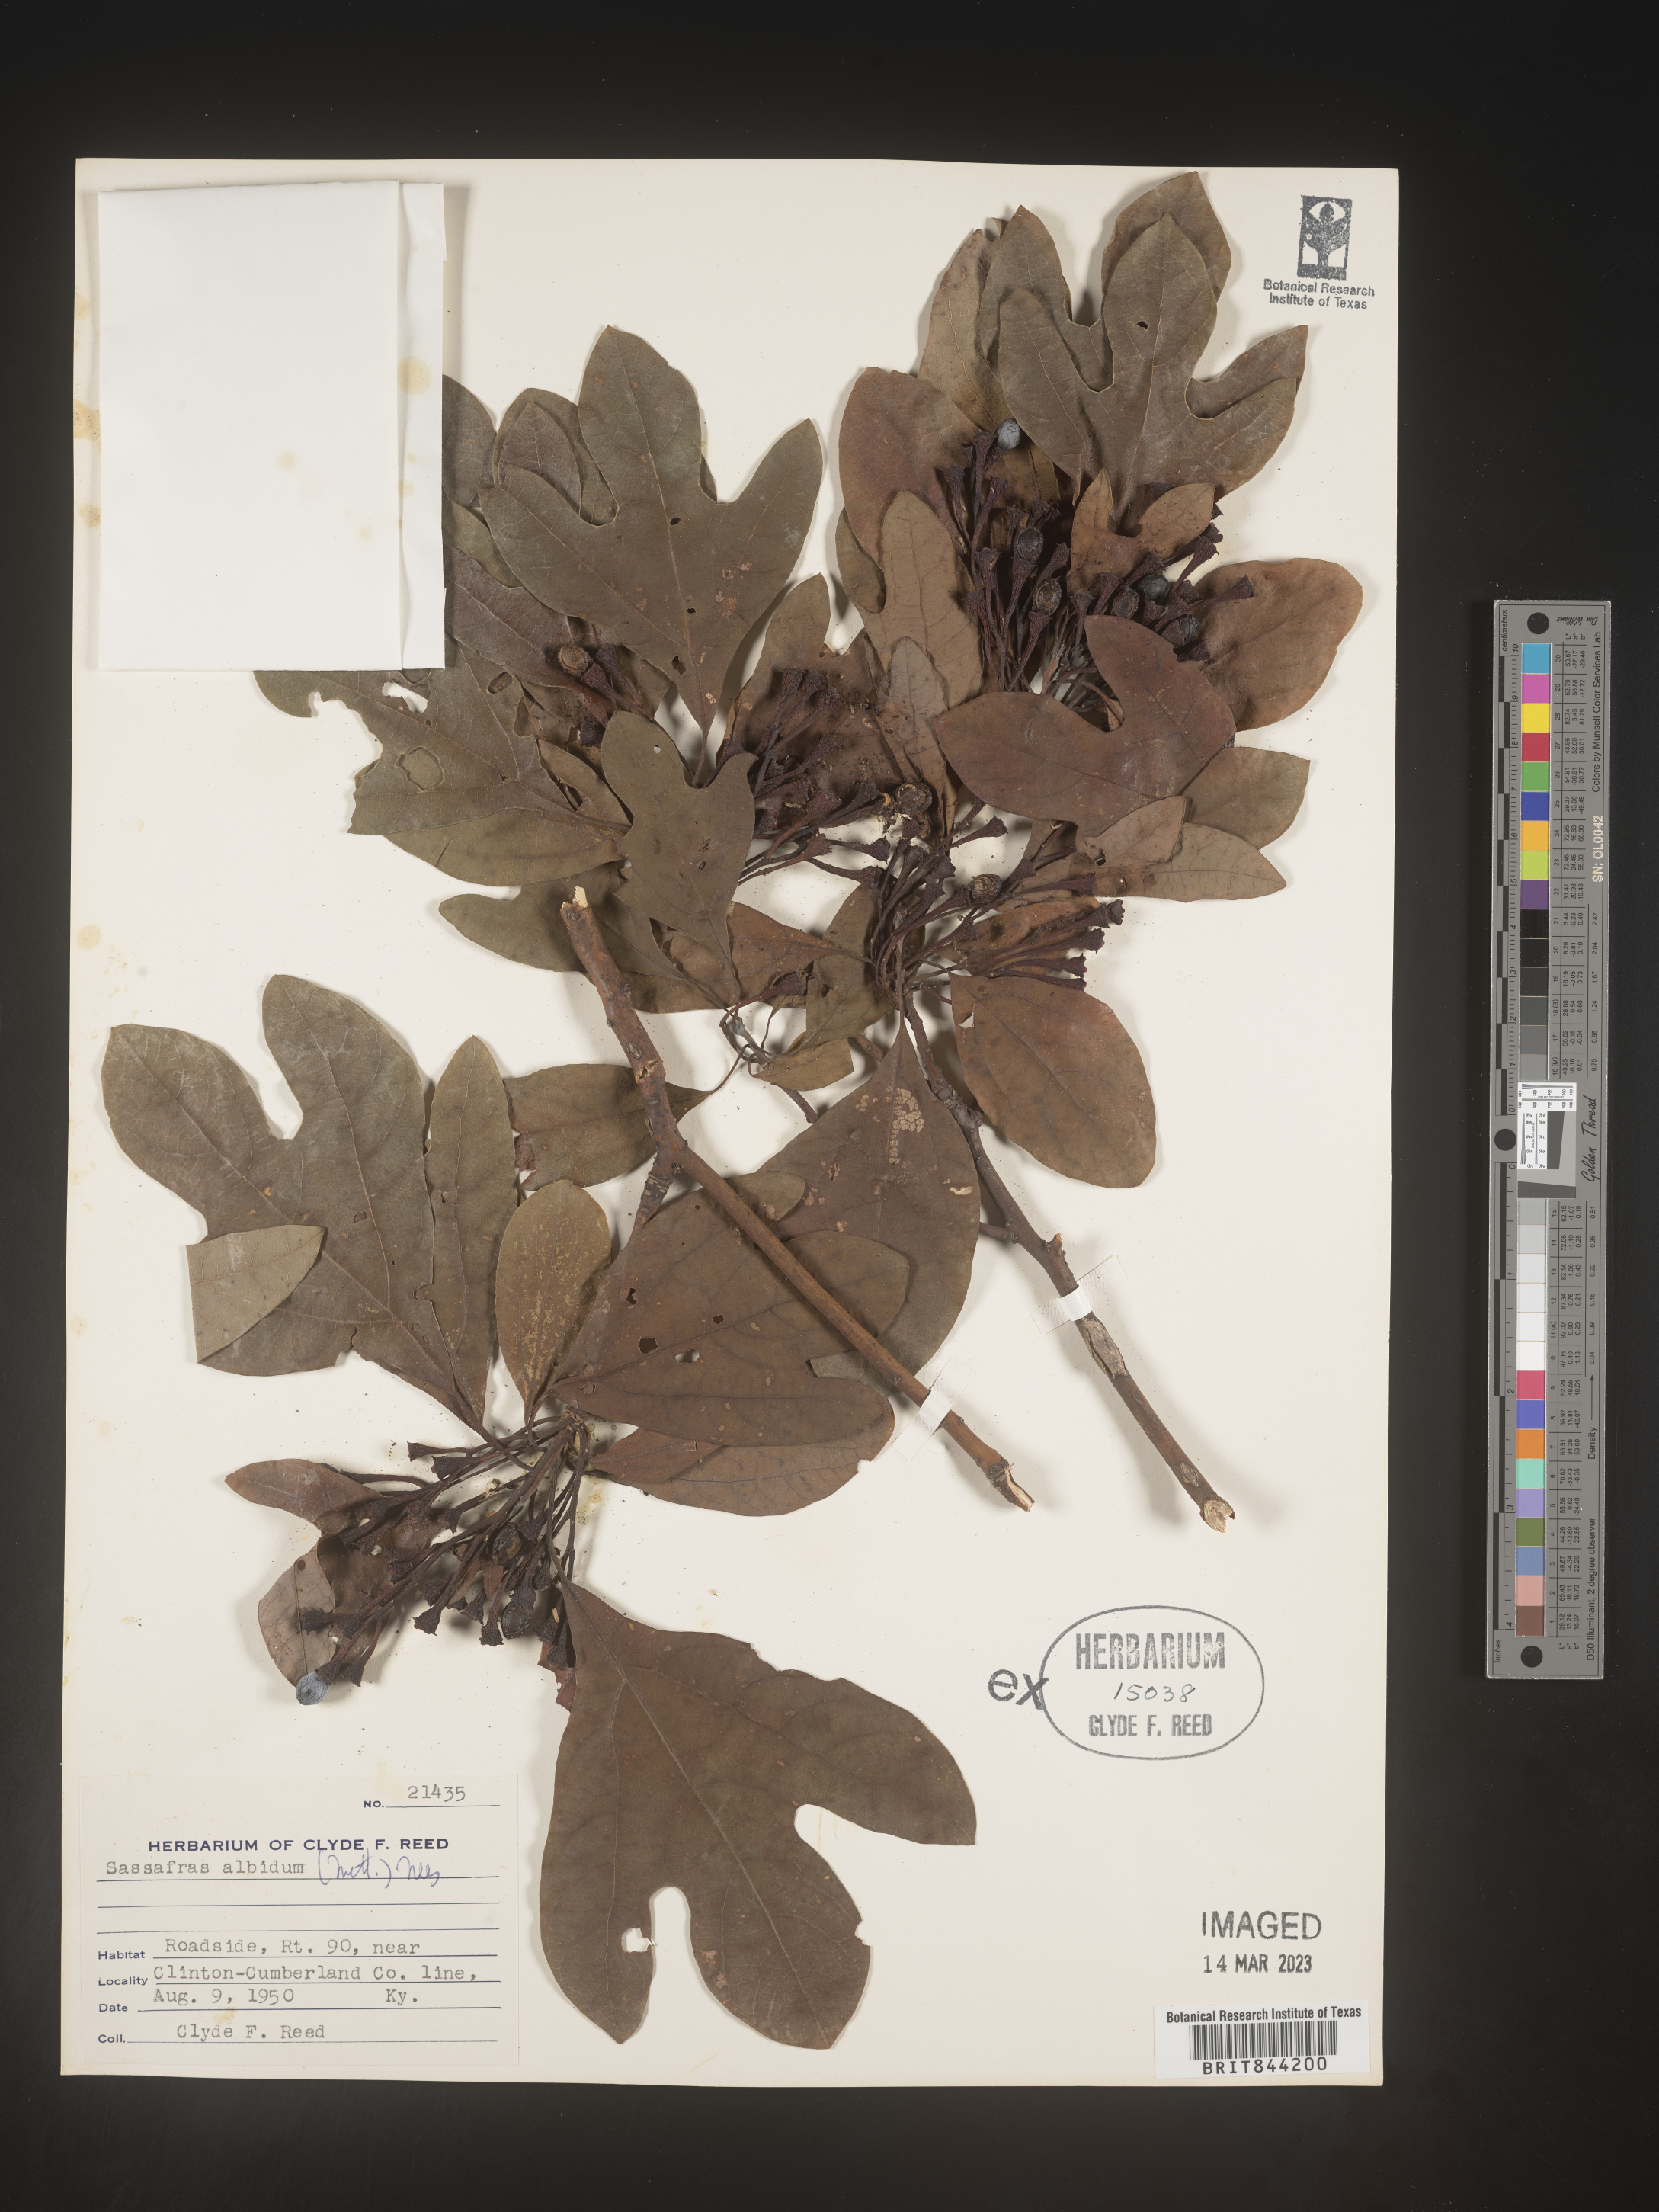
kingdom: Plantae
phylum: Tracheophyta
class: Magnoliopsida
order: Laurales
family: Lauraceae
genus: Sassafras
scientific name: Sassafras albidum
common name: Sassafras
